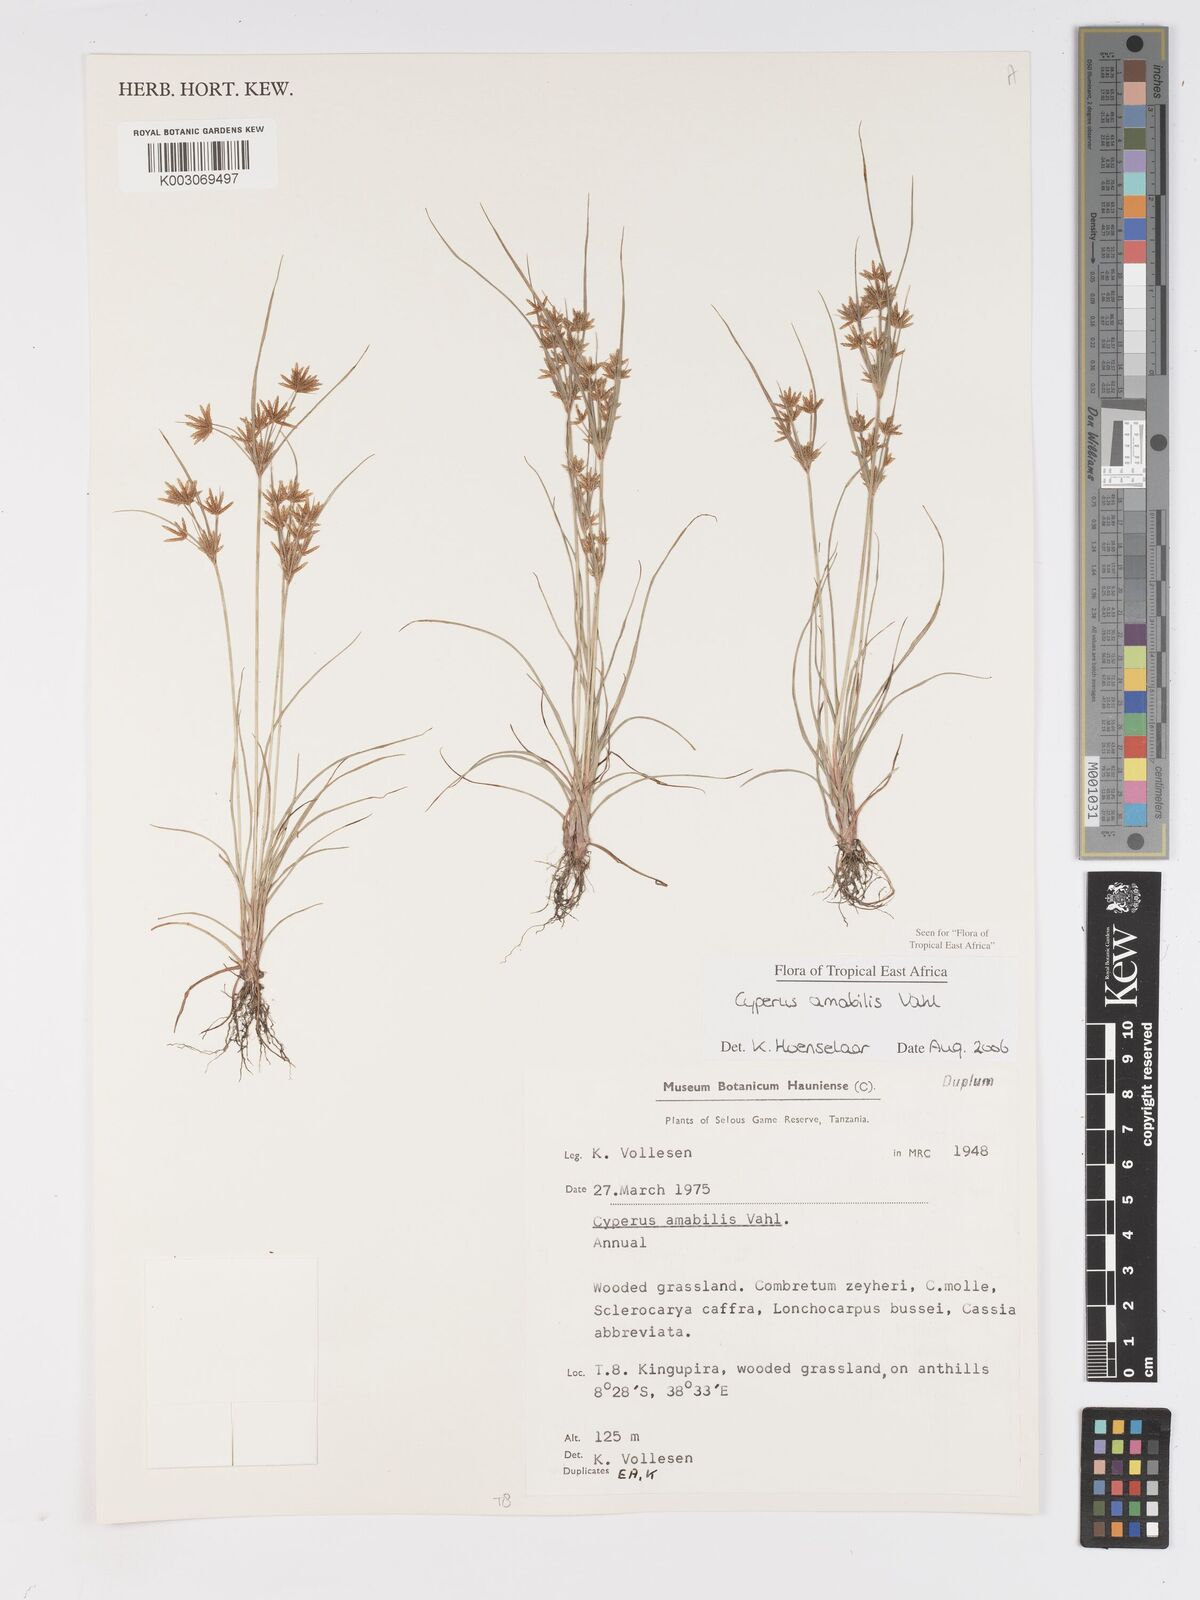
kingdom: Plantae
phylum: Tracheophyta
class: Liliopsida
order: Poales
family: Cyperaceae
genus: Cyperus
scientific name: Cyperus amabilis
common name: Foothill flat sedge
